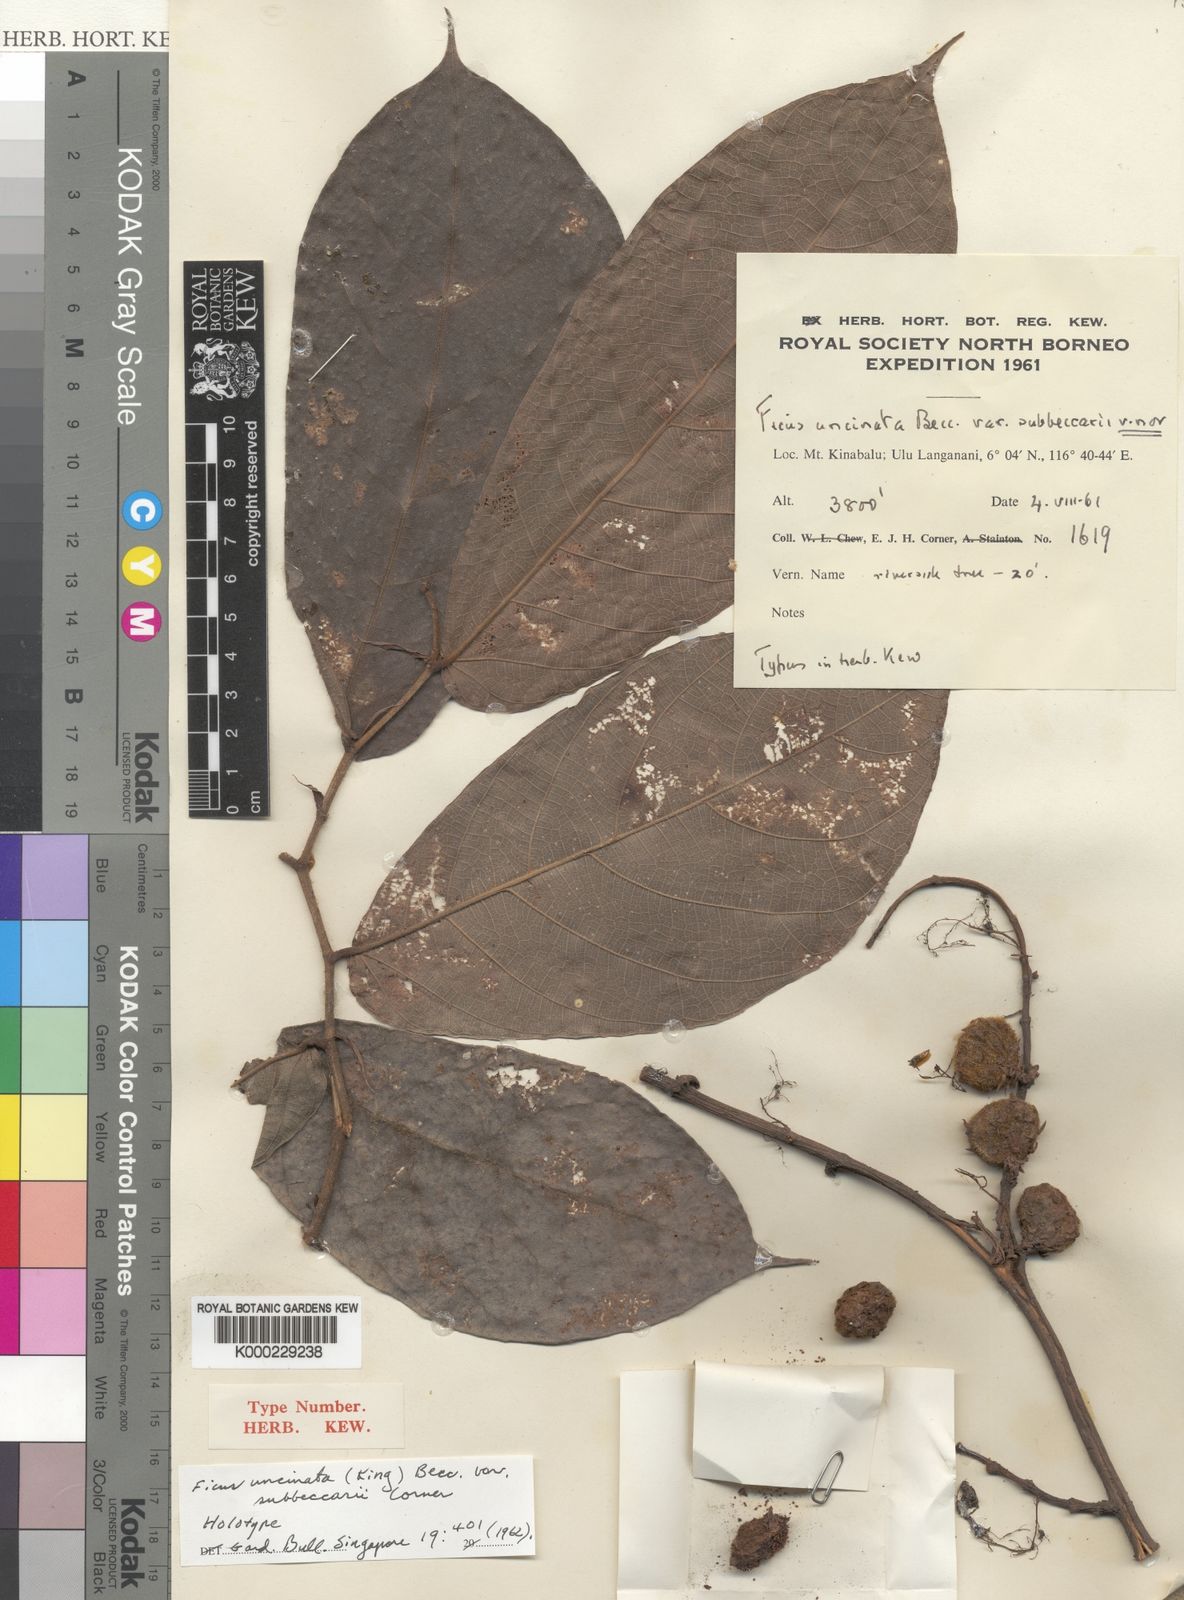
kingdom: Plantae
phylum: Tracheophyta
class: Magnoliopsida
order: Rosales
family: Moraceae
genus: Ficus
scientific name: Ficus malayana
